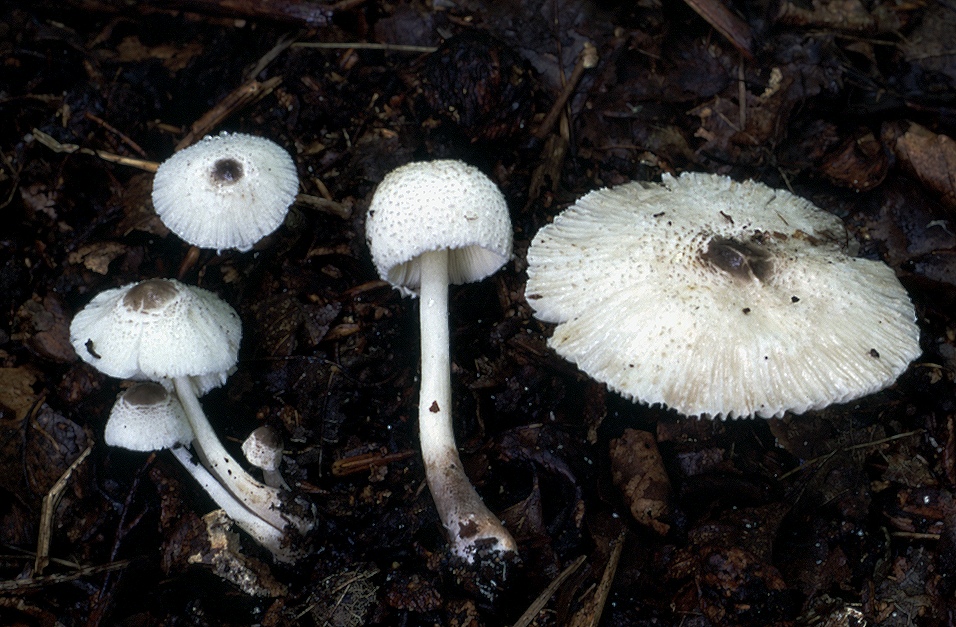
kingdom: Fungi
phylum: Basidiomycota
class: Agaricomycetes
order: Agaricales
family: Agaricaceae
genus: Leucocoprinus
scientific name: Leucocoprinus brebissonii
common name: gråsort silkehat
